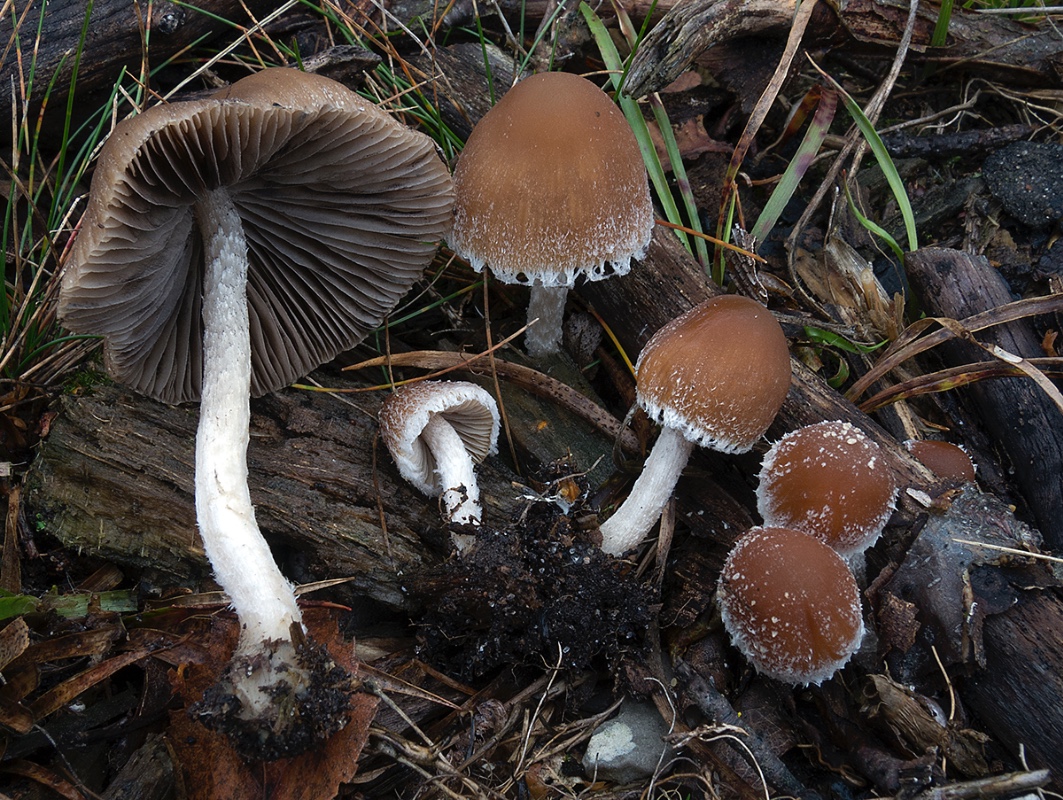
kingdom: Fungi
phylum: Basidiomycota
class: Agaricomycetes
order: Agaricales
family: Psathyrellaceae
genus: Psathyrella
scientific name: Psathyrella impexa
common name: rødmende mørkhat
